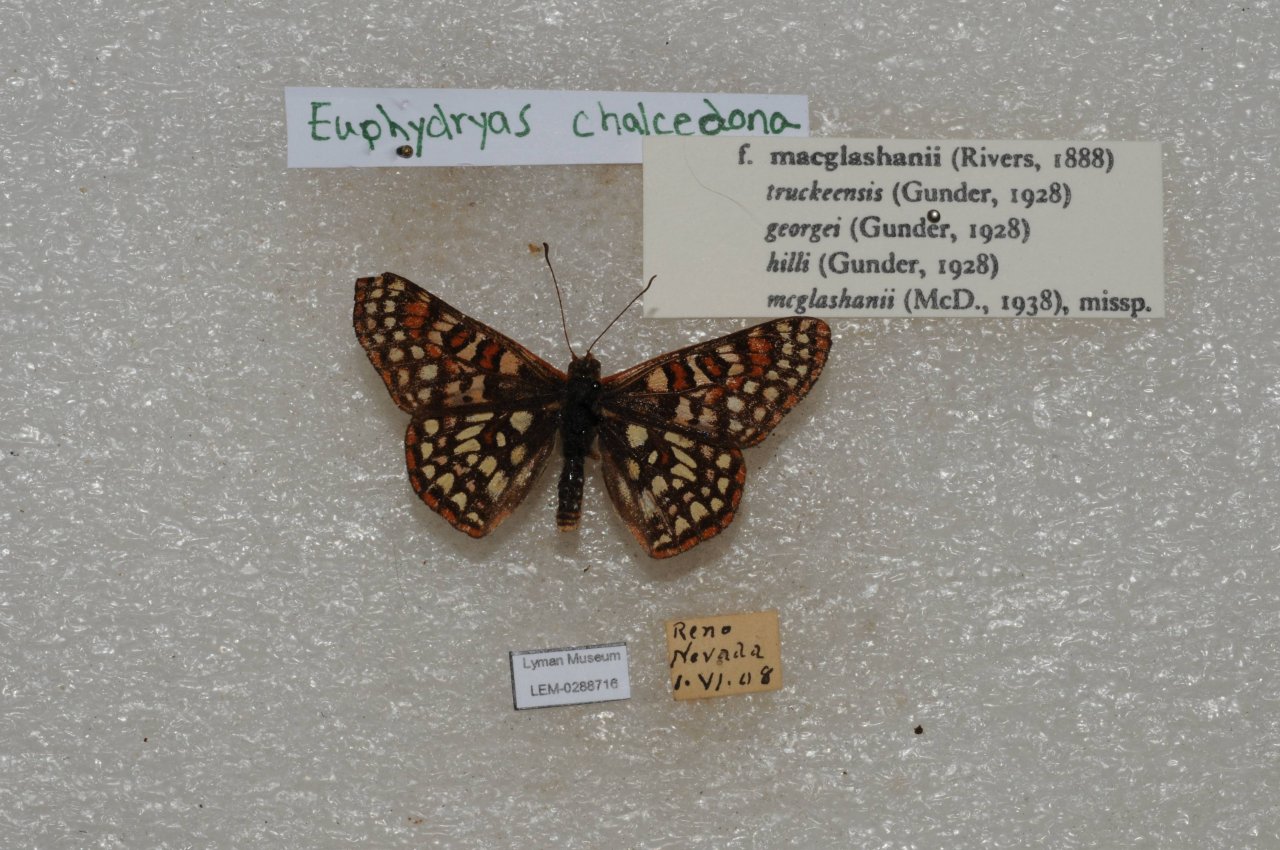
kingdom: Animalia
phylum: Arthropoda
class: Insecta
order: Lepidoptera
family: Nymphalidae
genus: Occidryas
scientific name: Occidryas chalcedona
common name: Chalcedon Checkerspot
